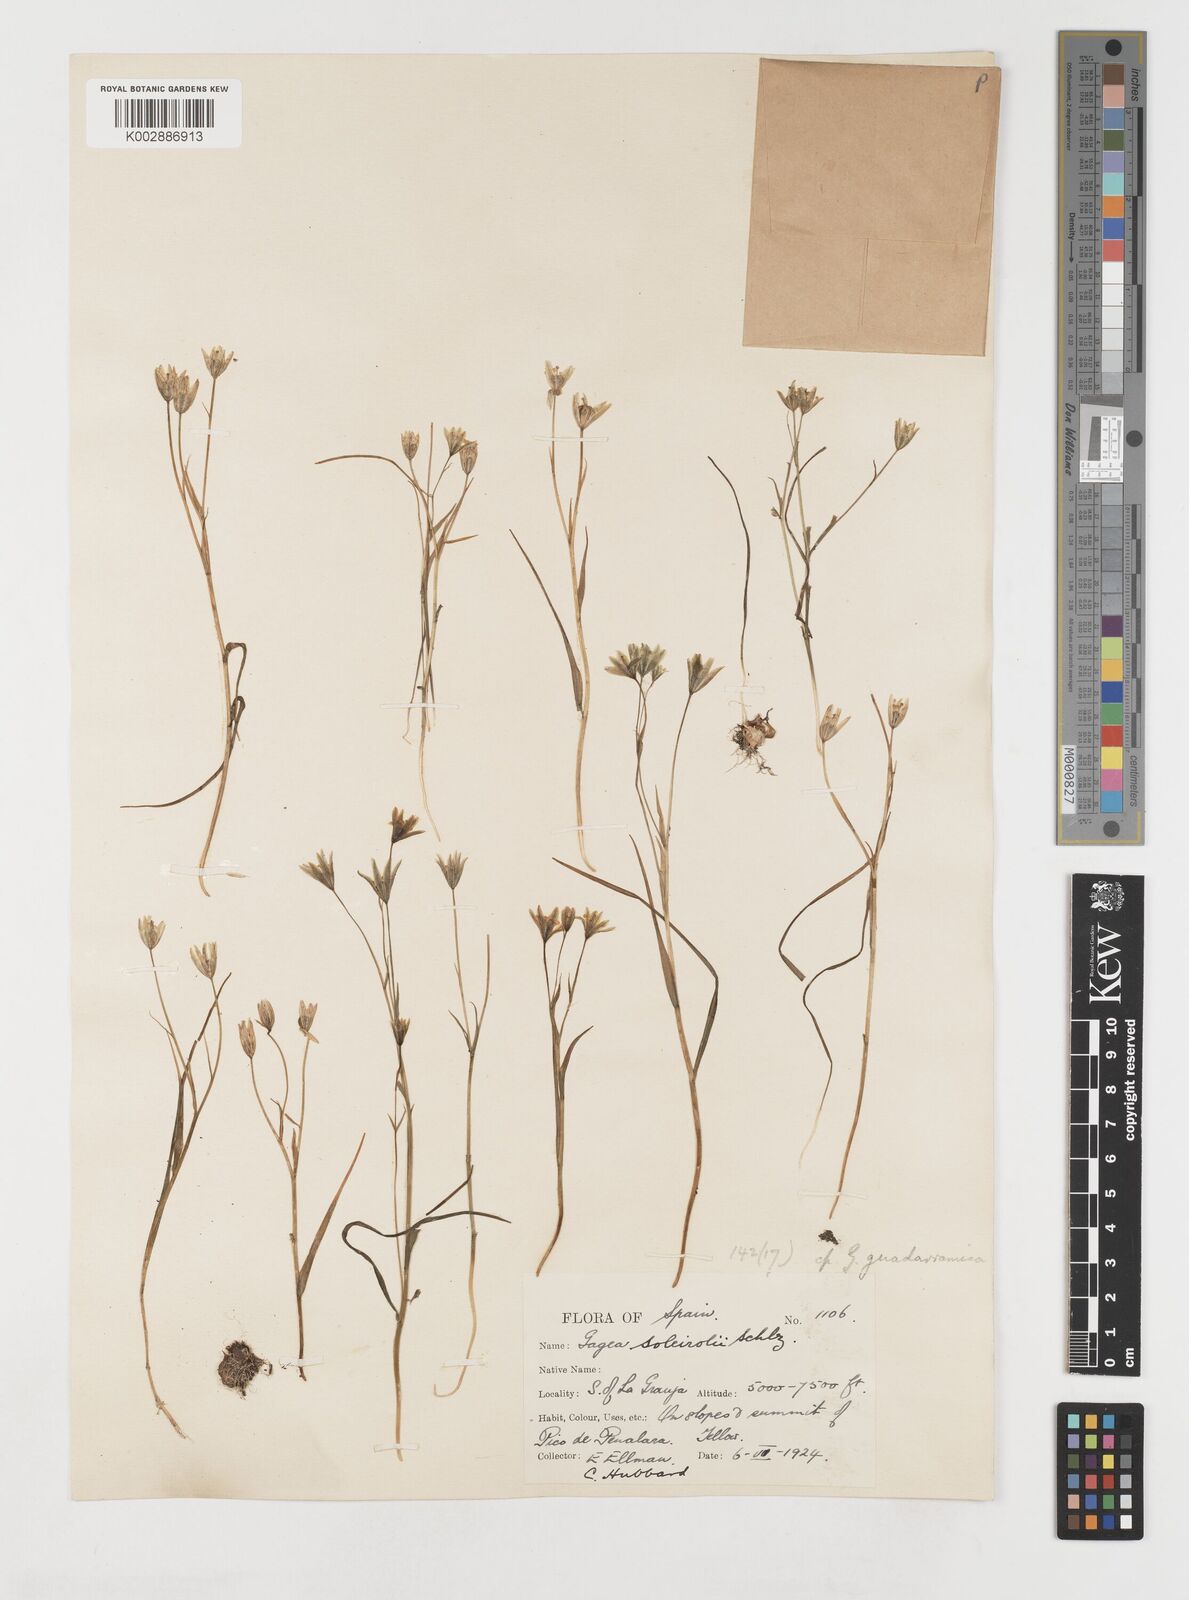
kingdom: Plantae
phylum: Tracheophyta
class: Liliopsida
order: Liliales
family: Liliaceae
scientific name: Liliaceae
